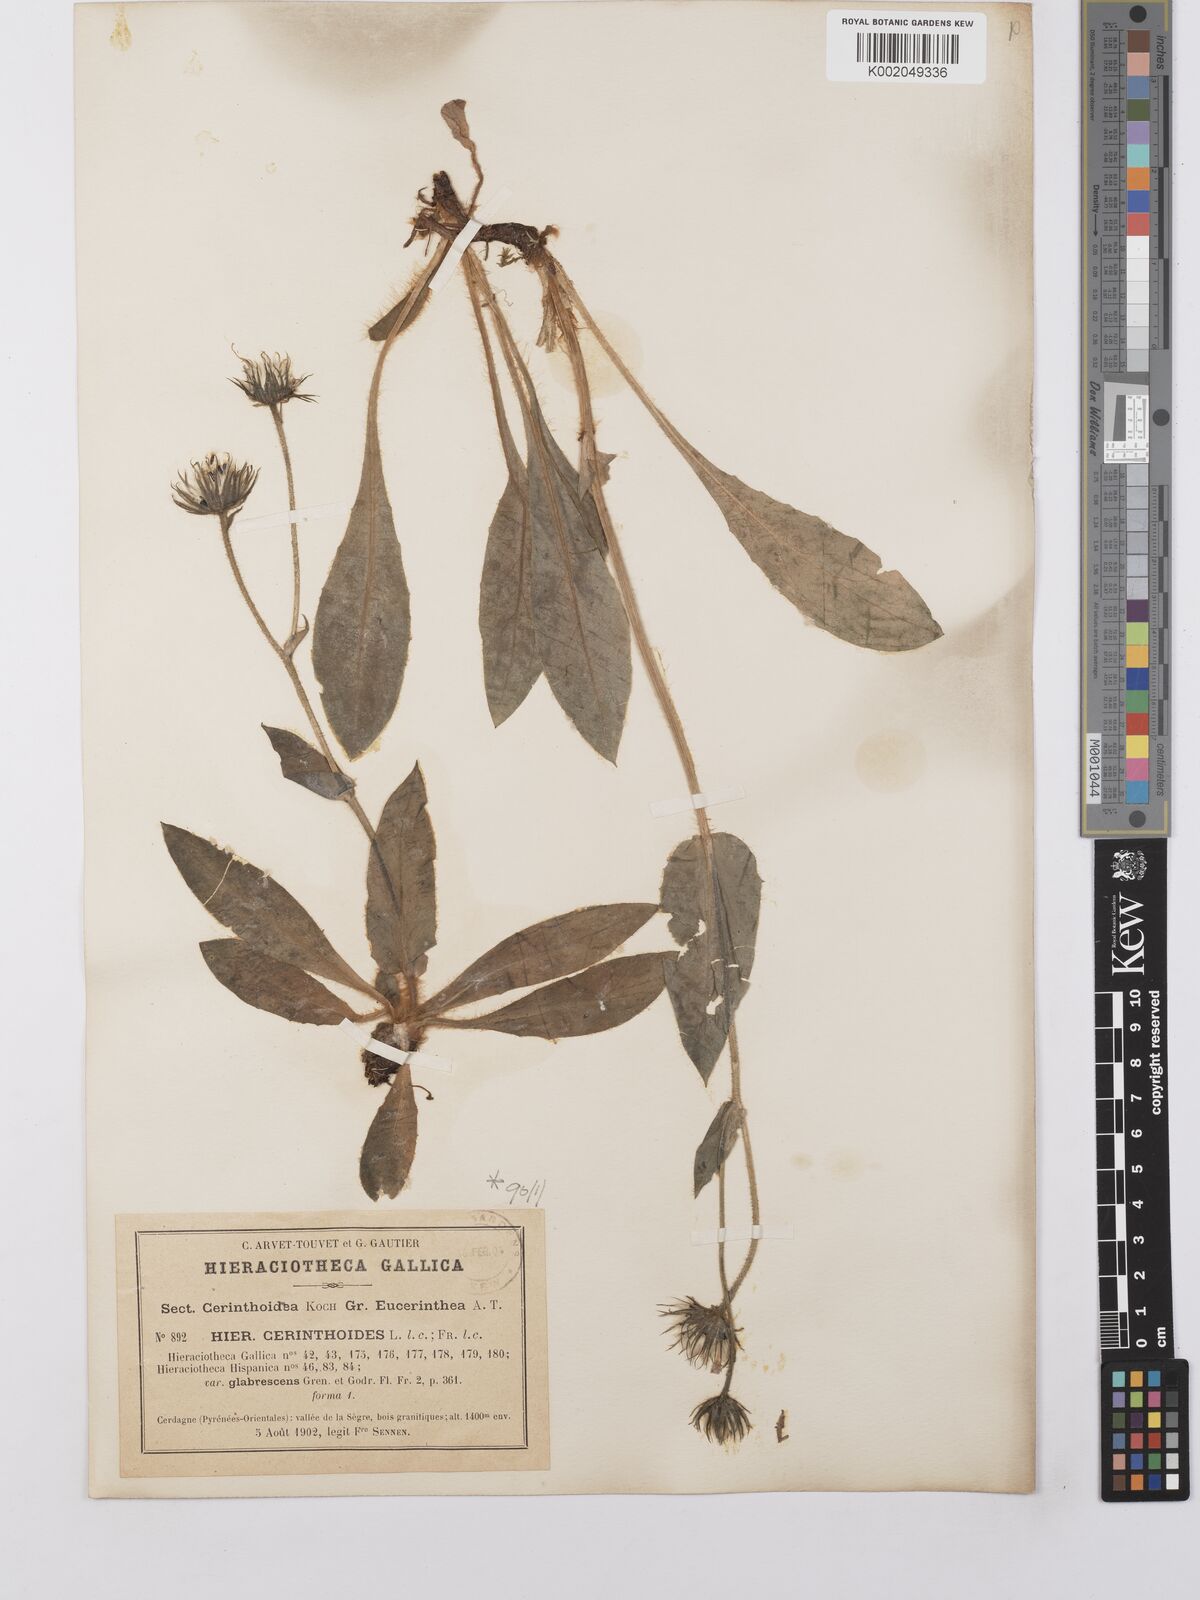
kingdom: Plantae
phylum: Tracheophyta
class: Magnoliopsida
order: Asterales
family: Asteraceae
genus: Hieracium
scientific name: Hieracium cerinthoides
